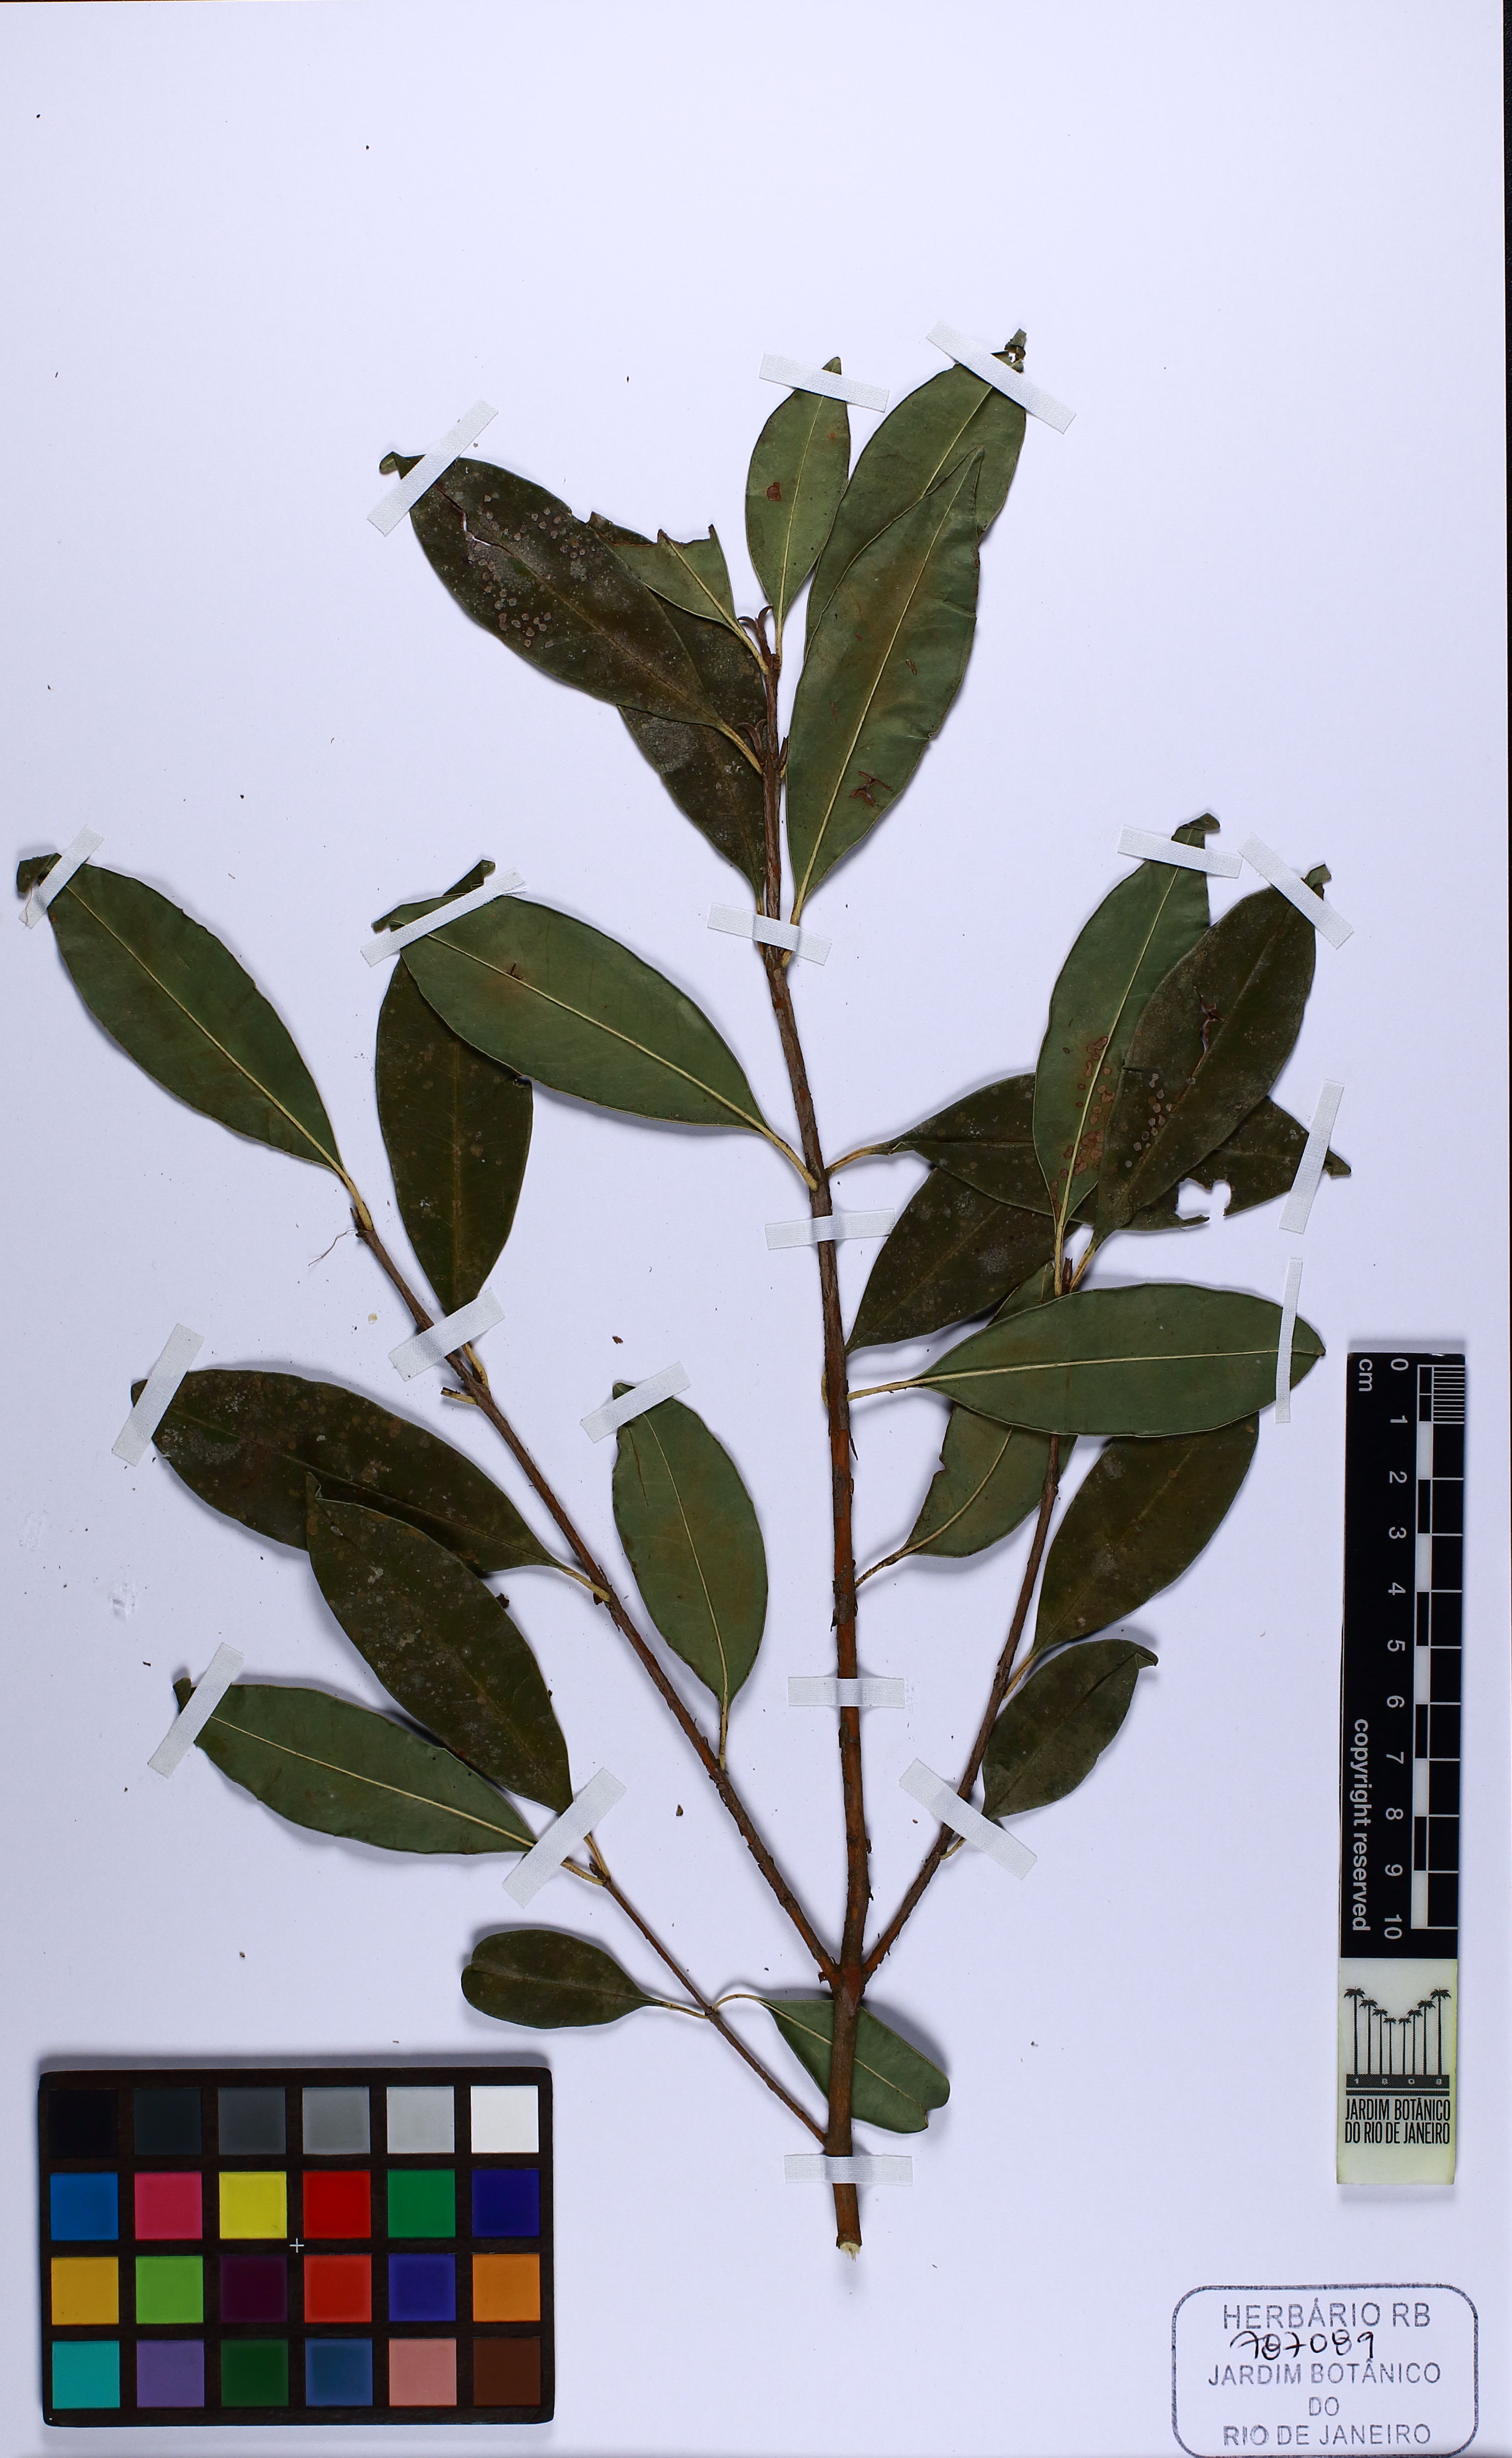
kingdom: Plantae
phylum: Tracheophyta
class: Magnoliopsida
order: Myrtales
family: Myrtaceae
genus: Eugenia
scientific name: Eugenia involucrata
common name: Cherry-of-the-rio grande
